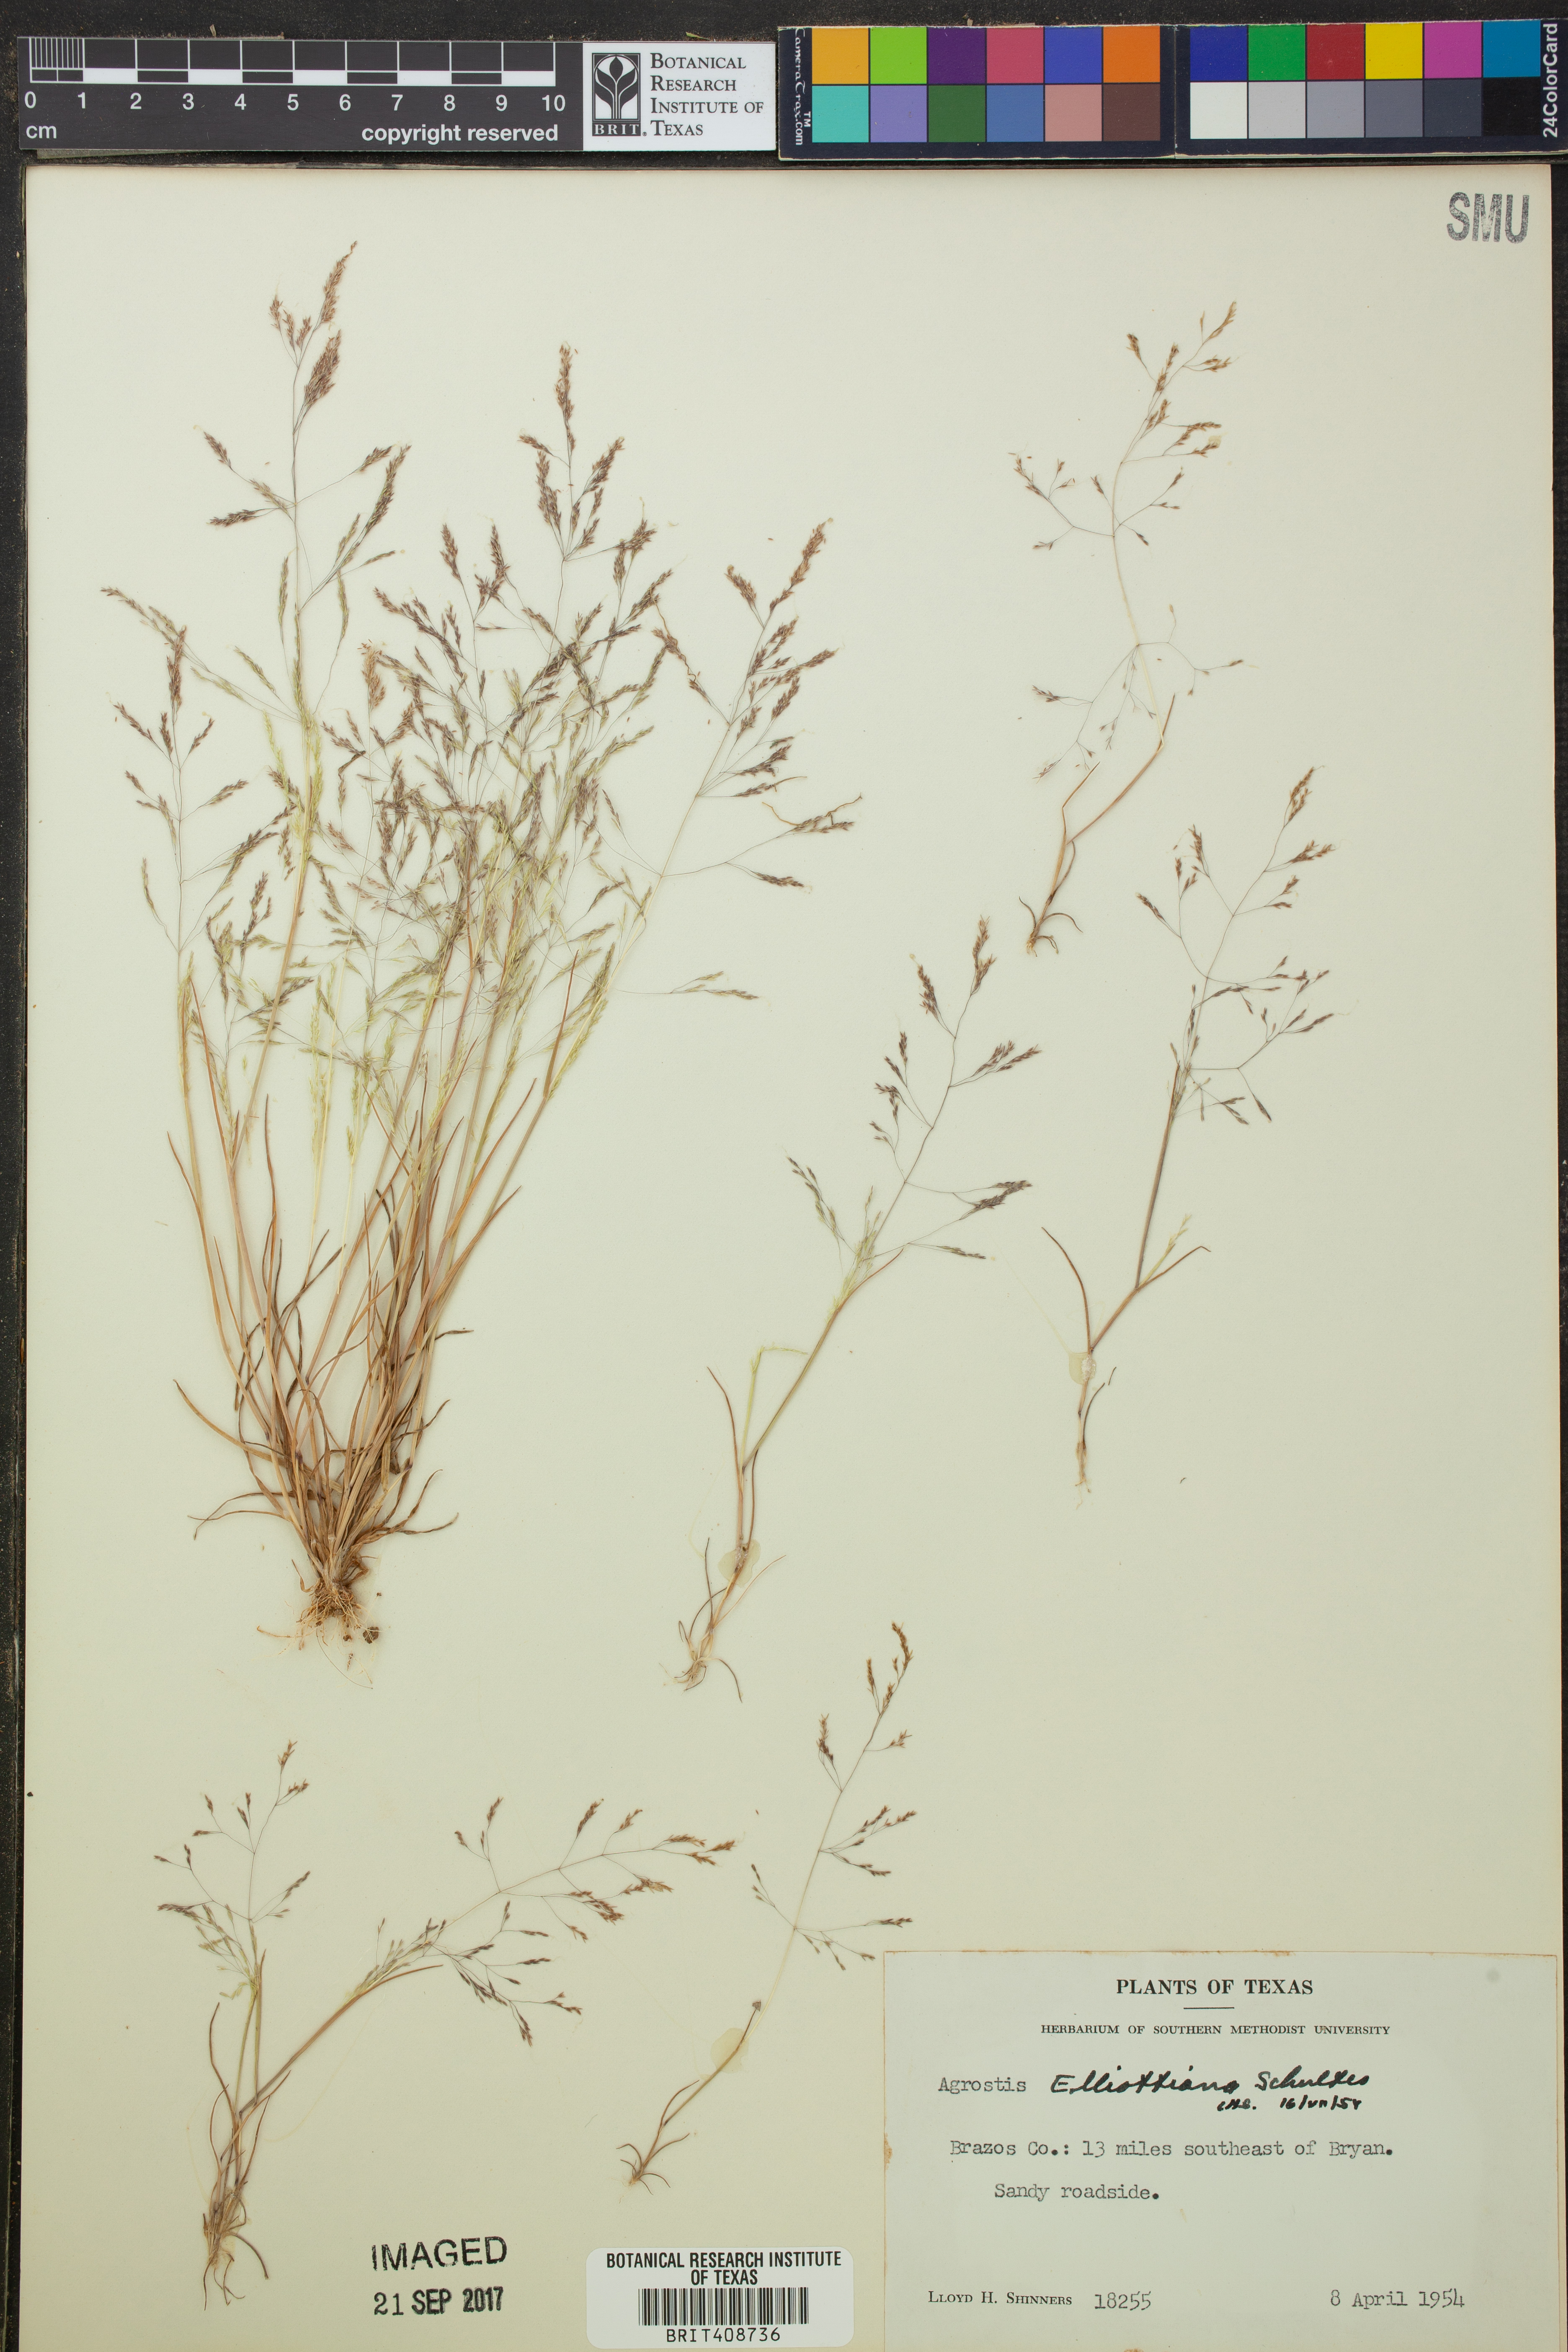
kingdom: Plantae
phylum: Tracheophyta
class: Liliopsida
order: Poales
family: Poaceae
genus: Agrostis
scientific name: Agrostis elliottiana
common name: Elliott's bent
